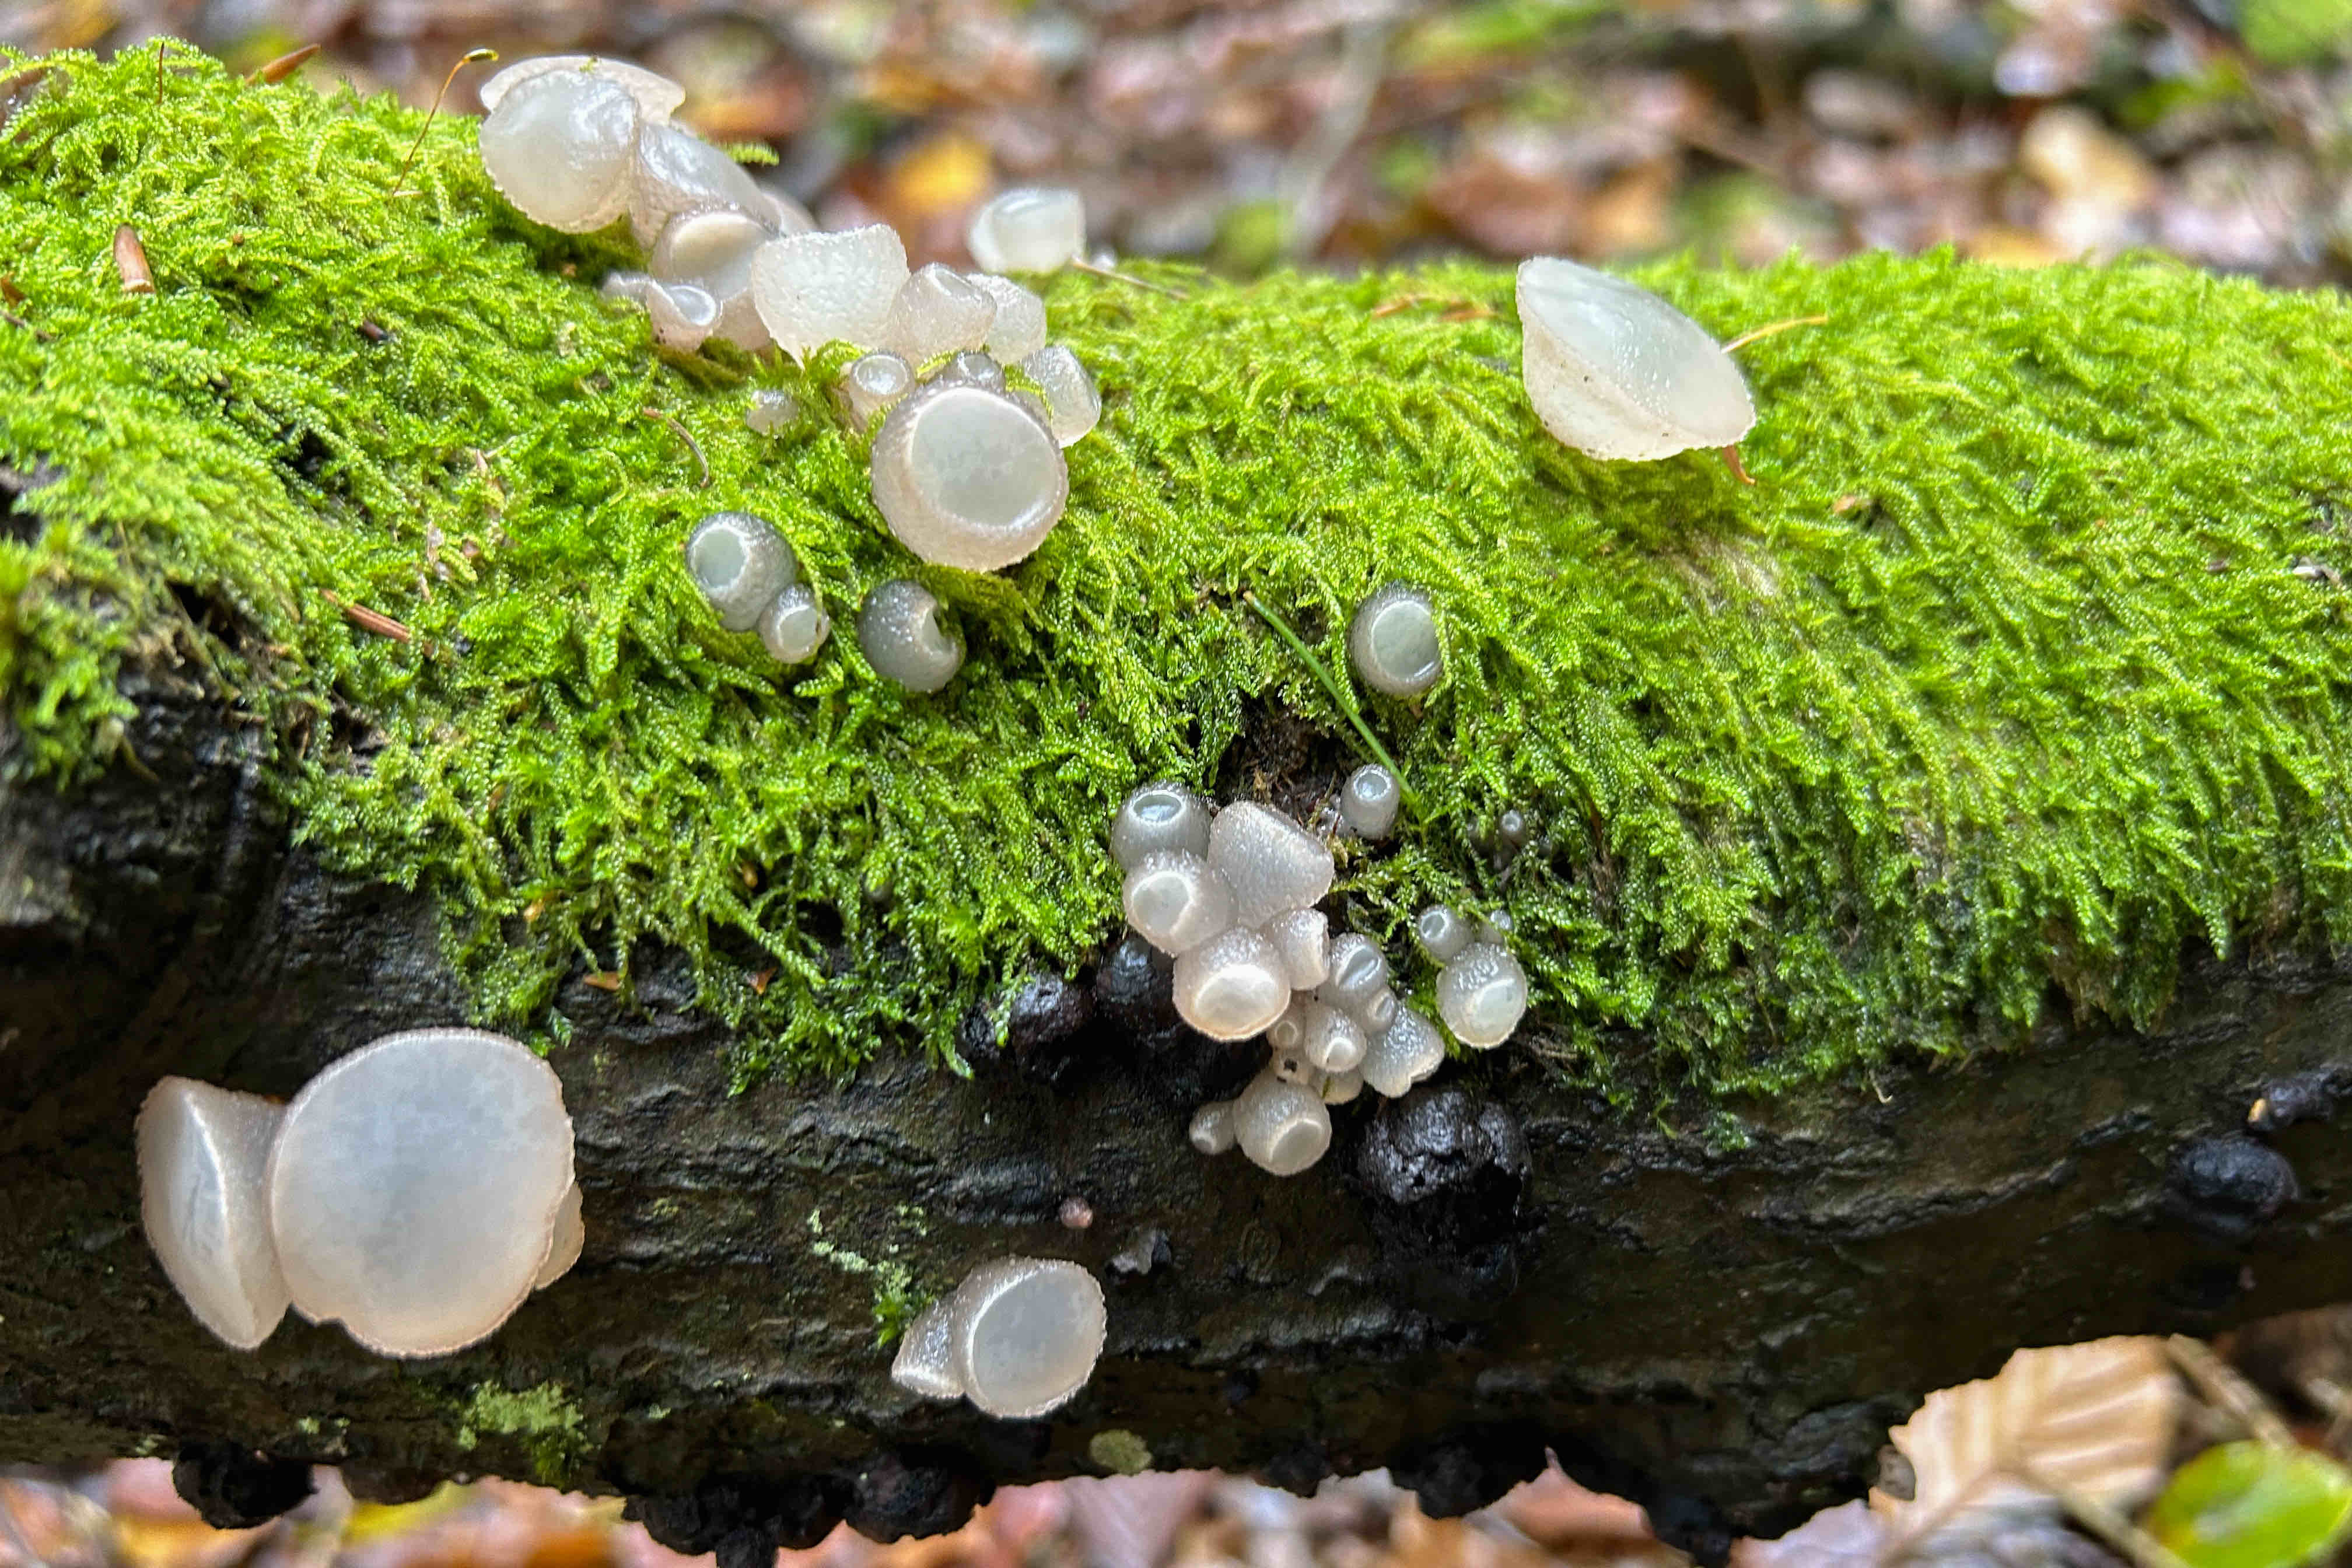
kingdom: Fungi
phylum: Ascomycota
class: Leotiomycetes
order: Helotiales
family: Gelatinodiscaceae
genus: Neobulgaria
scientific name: Neobulgaria pura
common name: bleg bævreskive
